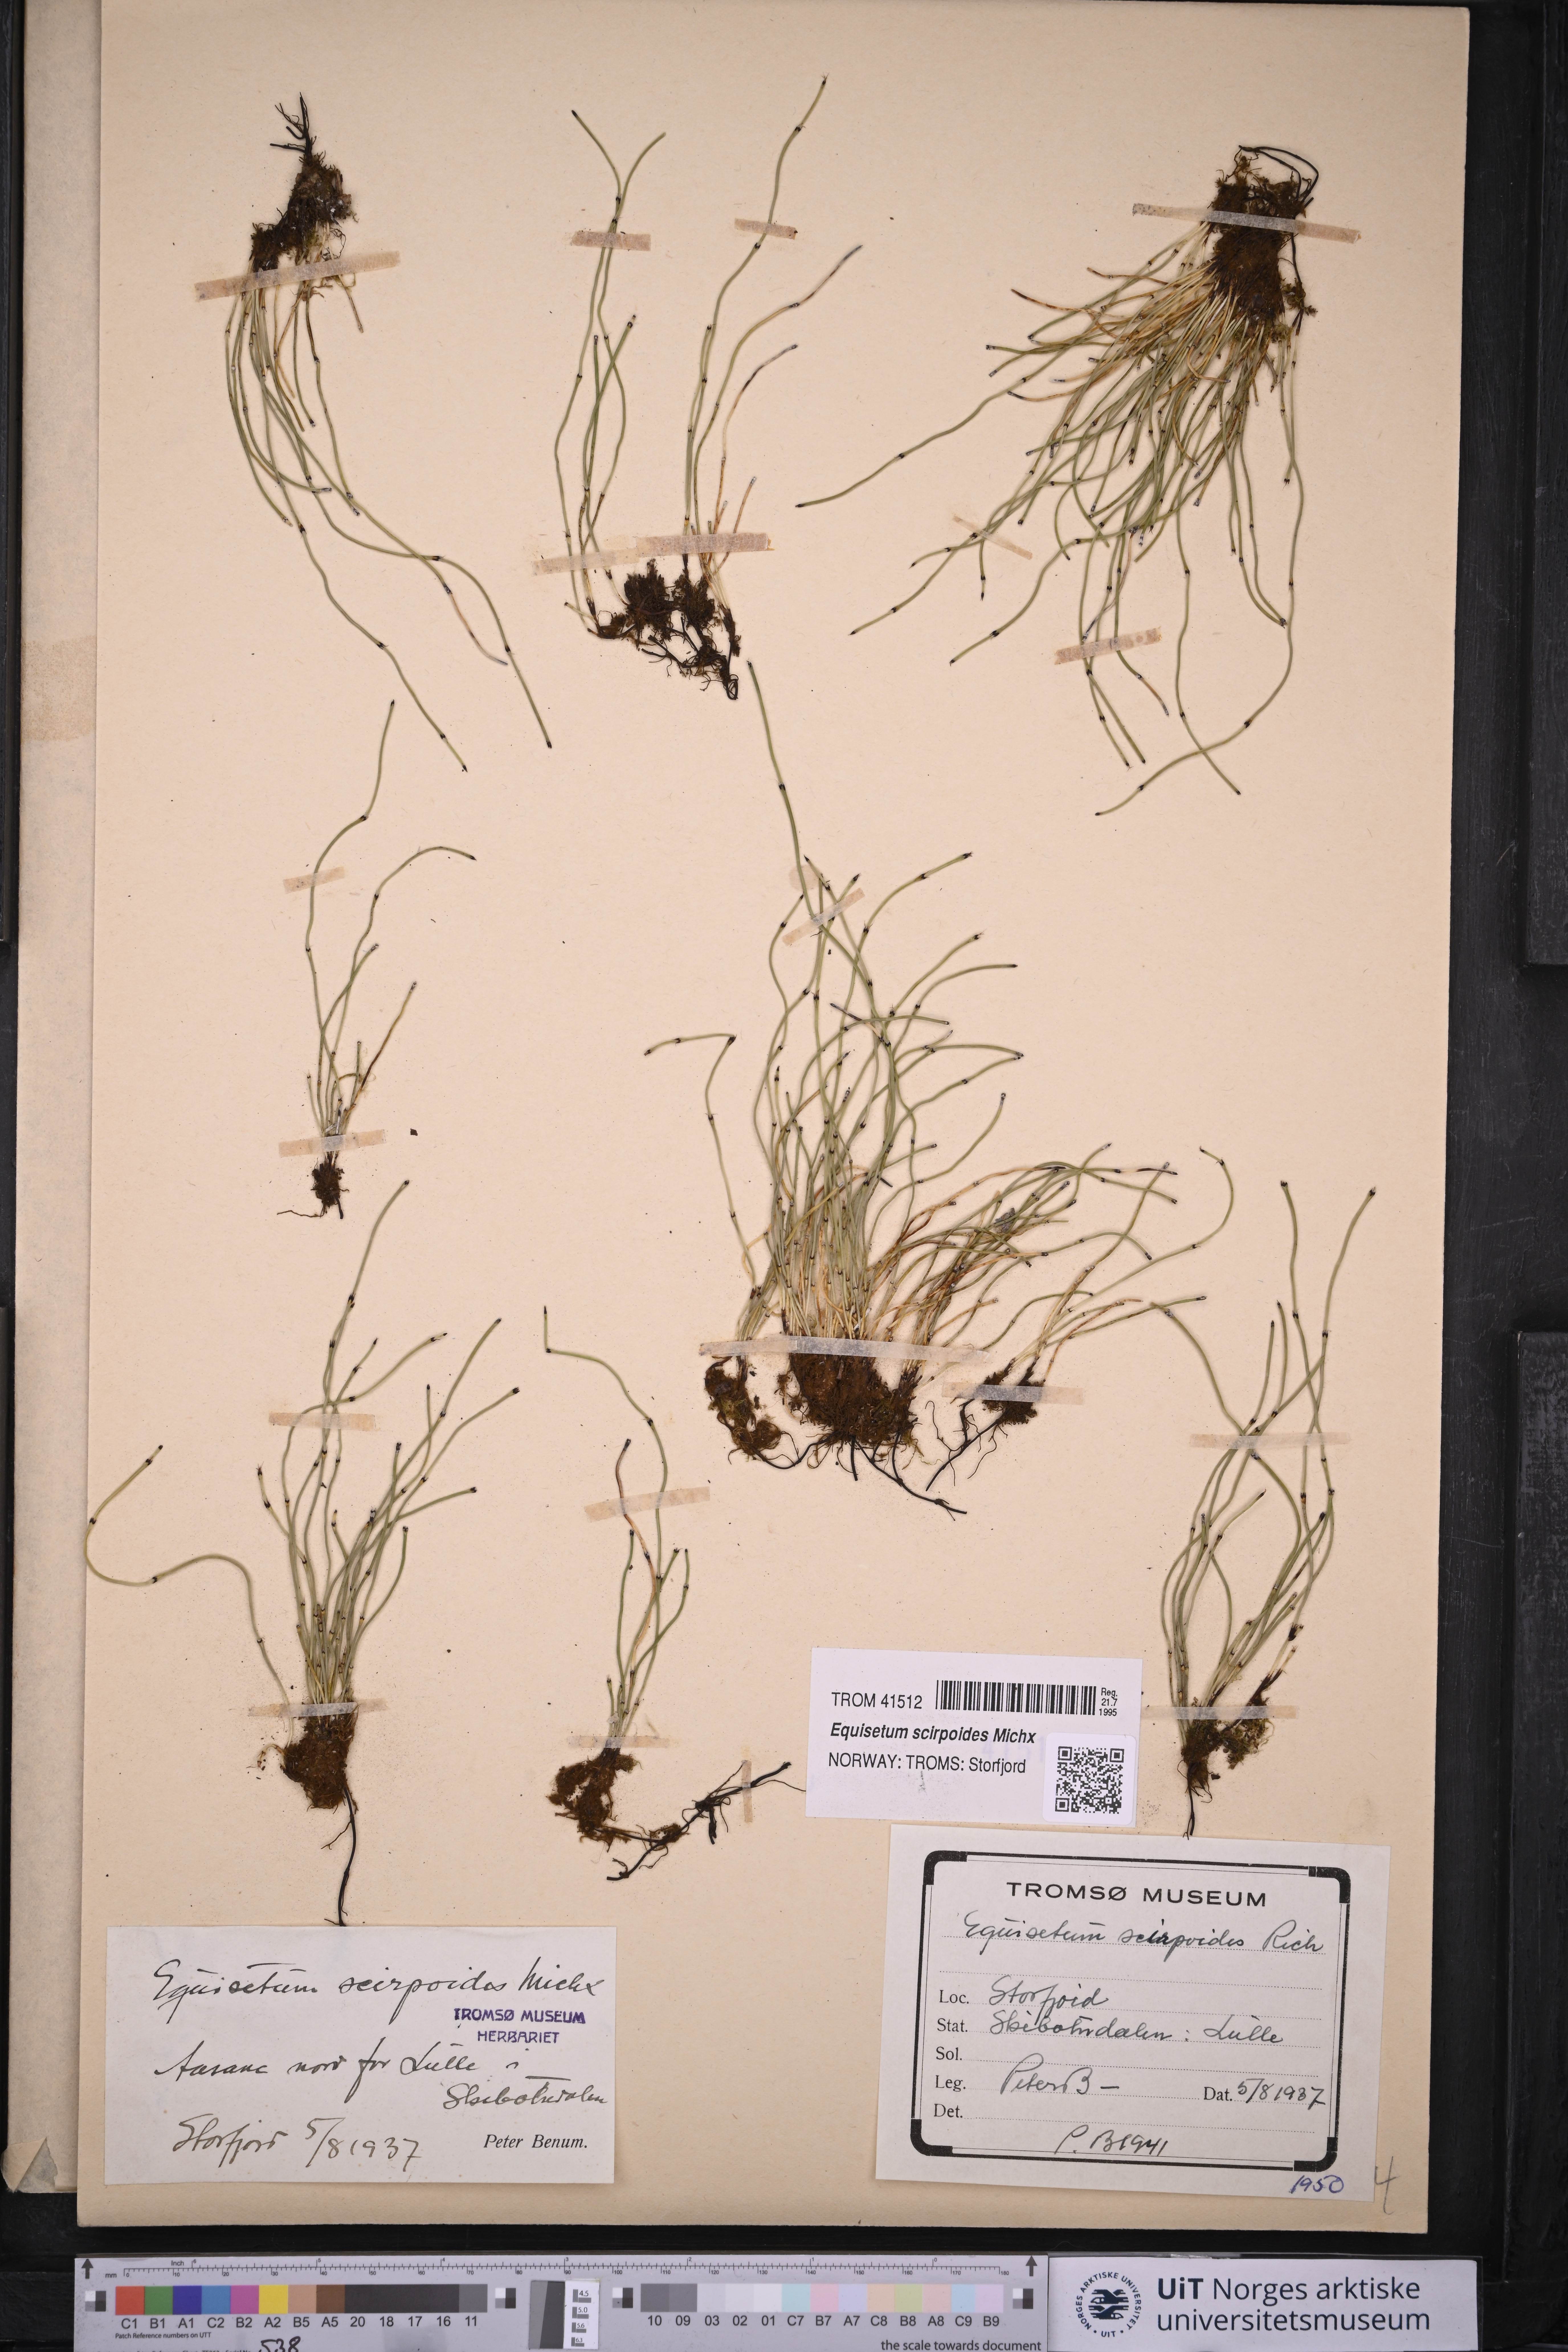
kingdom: Plantae
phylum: Tracheophyta
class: Polypodiopsida
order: Equisetales
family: Equisetaceae
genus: Equisetum
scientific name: Equisetum scirpoides
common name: Delicate horsetail
